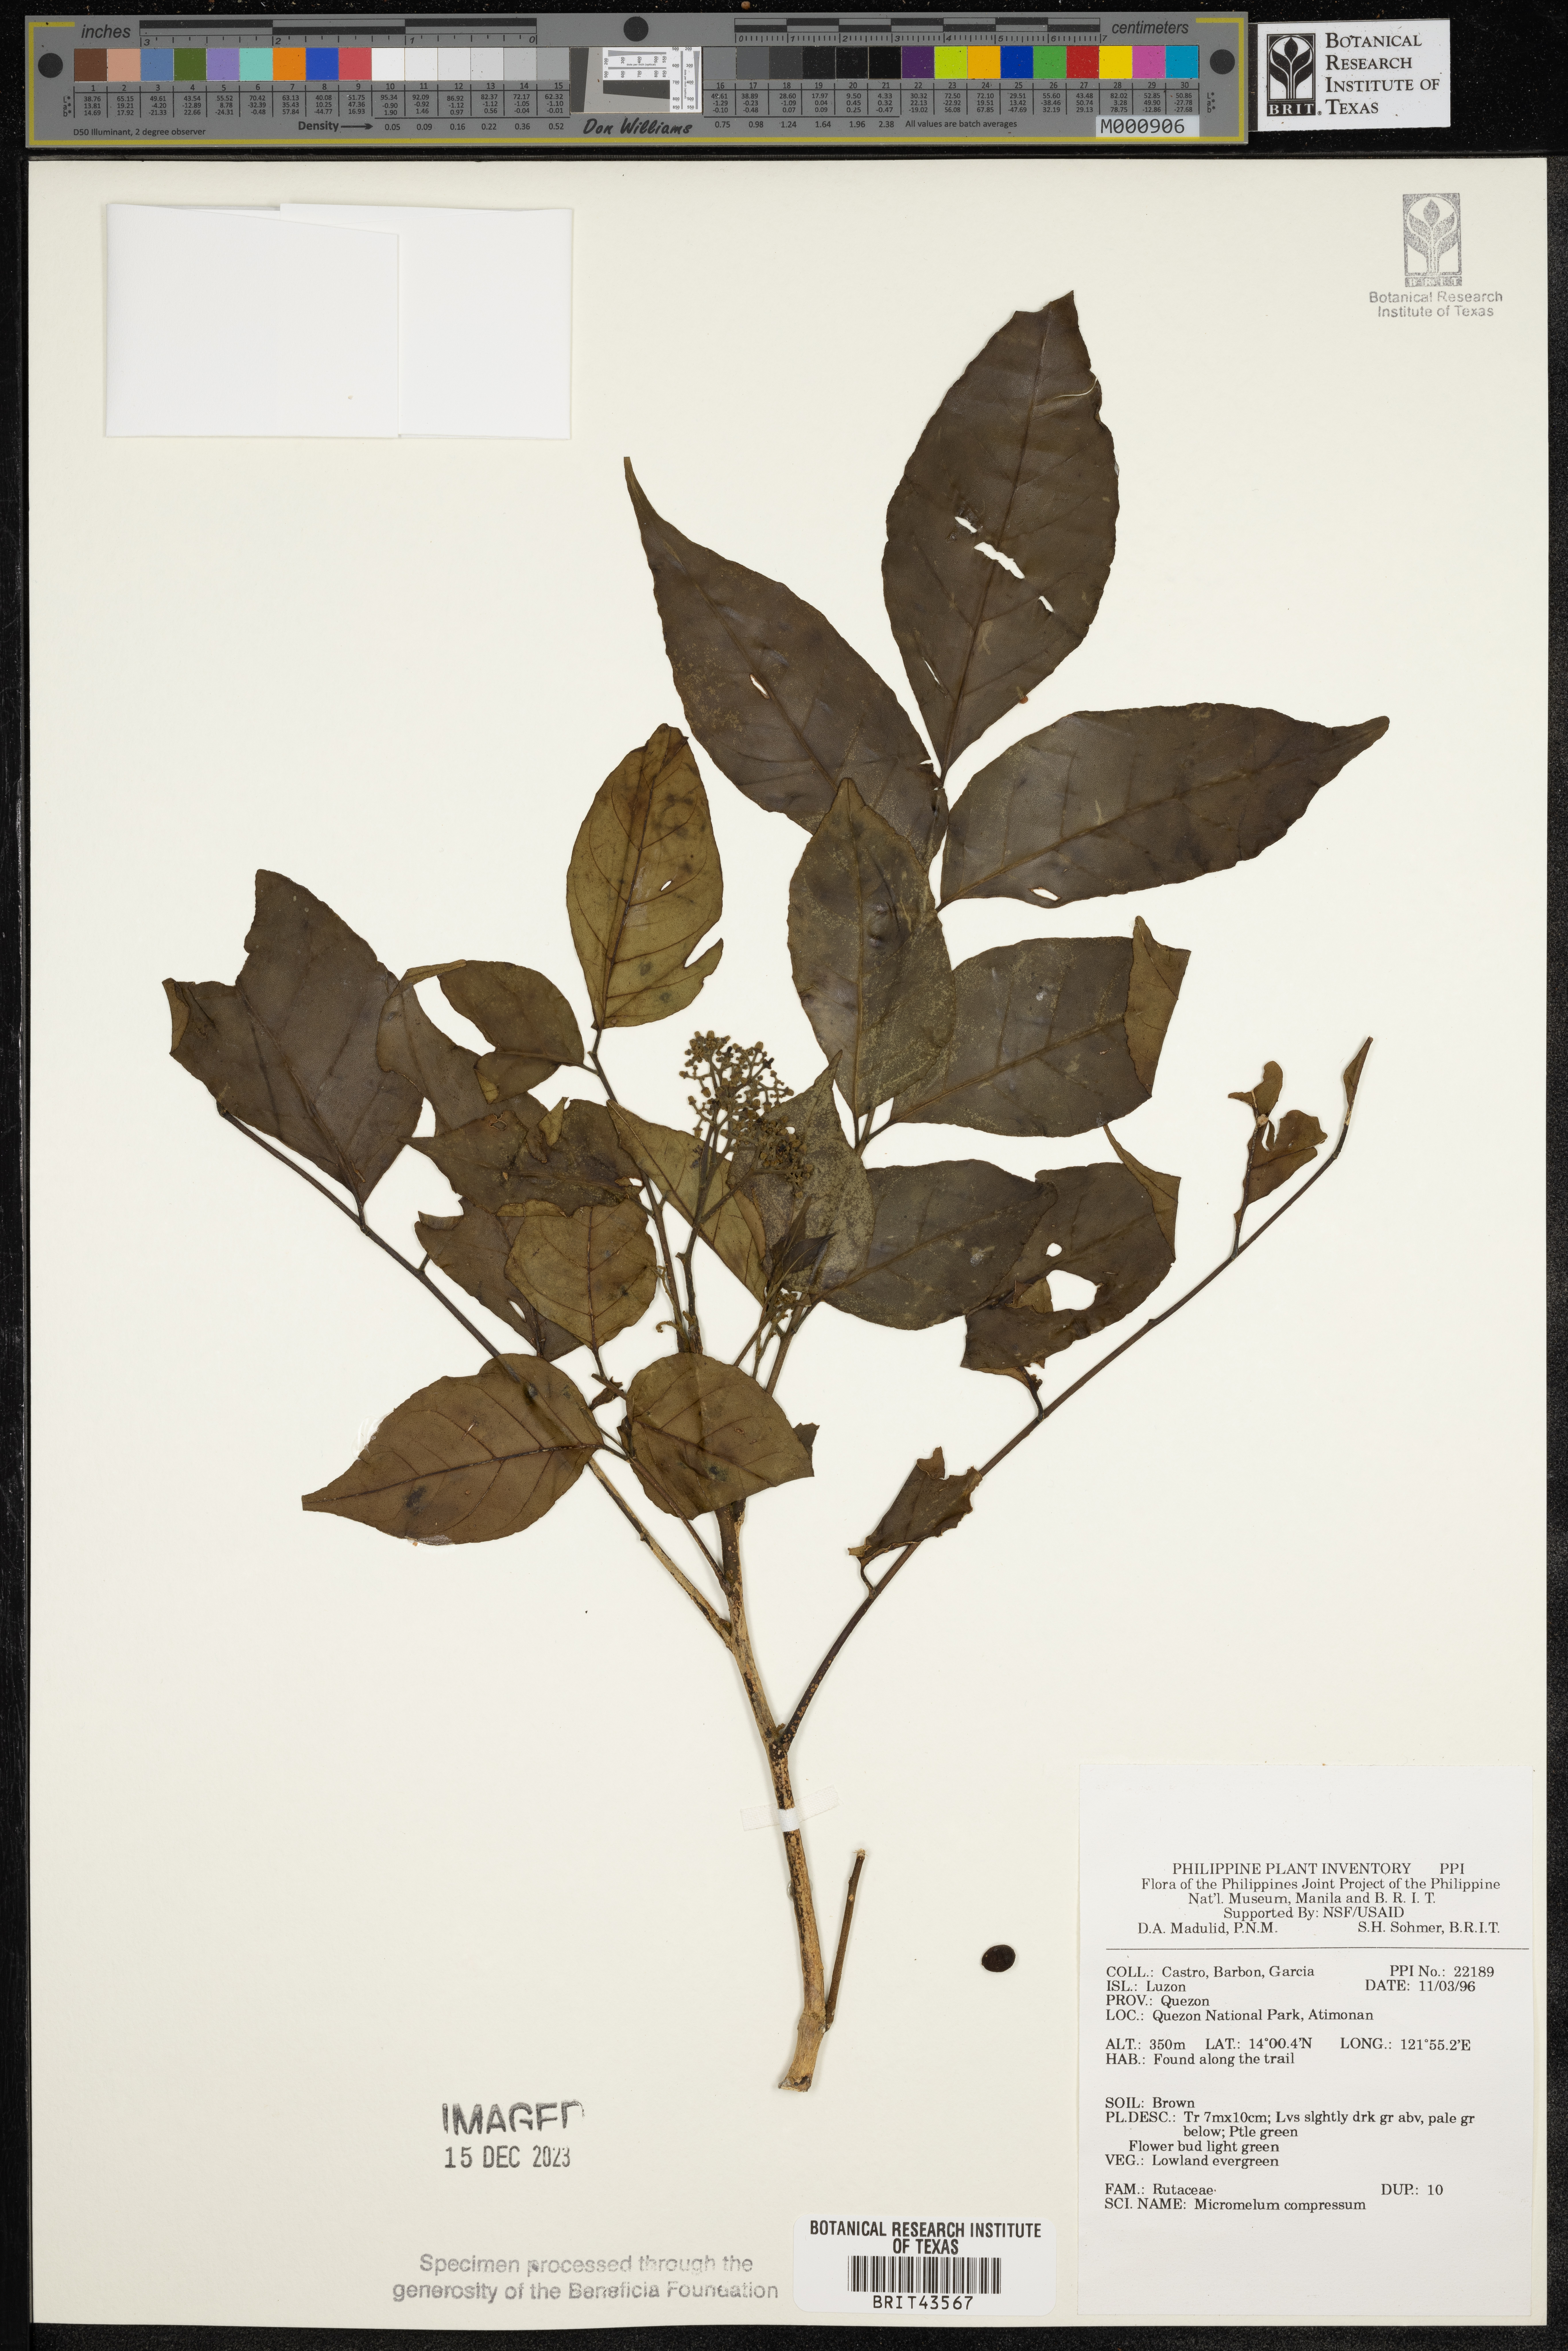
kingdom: Plantae
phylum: Tracheophyta
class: Magnoliopsida
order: Sapindales
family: Rutaceae
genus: Micromelum
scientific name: Micromelum compressum
